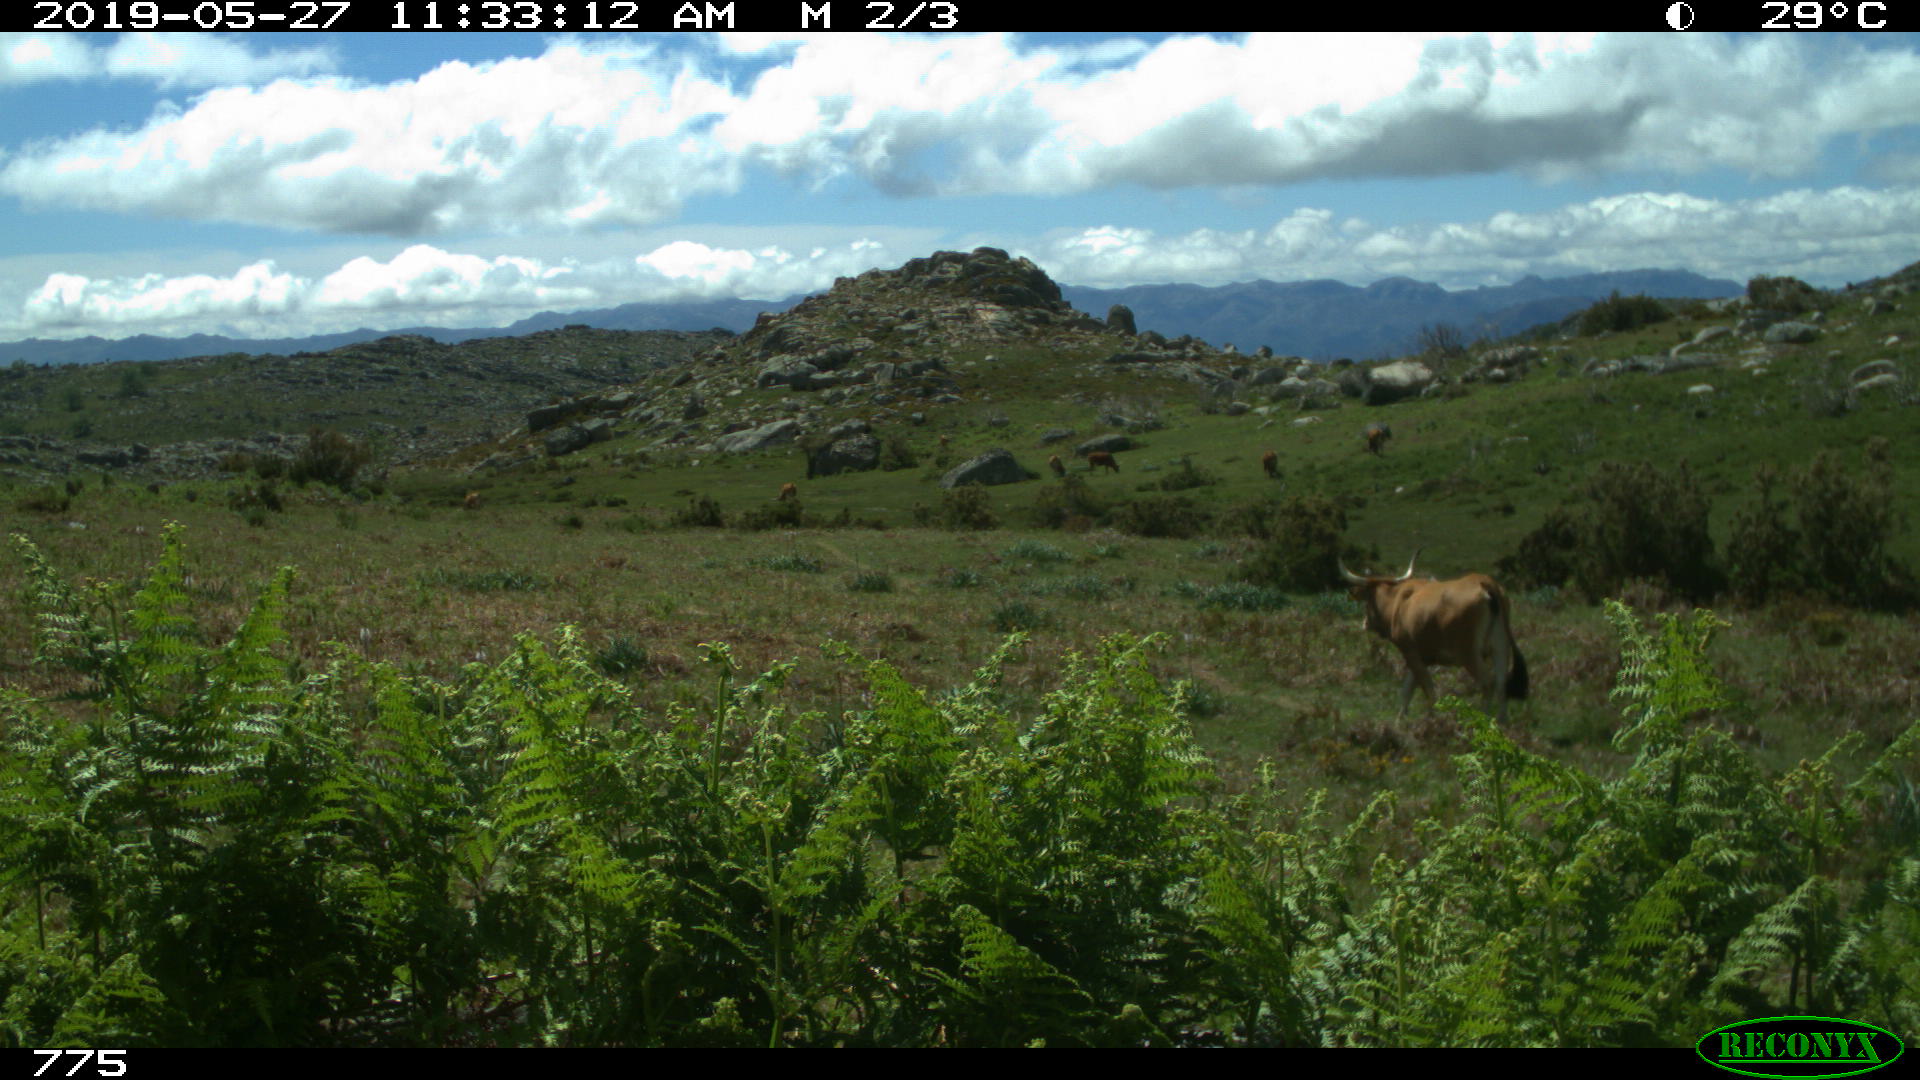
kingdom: Animalia
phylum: Chordata
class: Mammalia
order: Artiodactyla
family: Bovidae
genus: Bos
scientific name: Bos taurus
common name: Domesticated cattle
